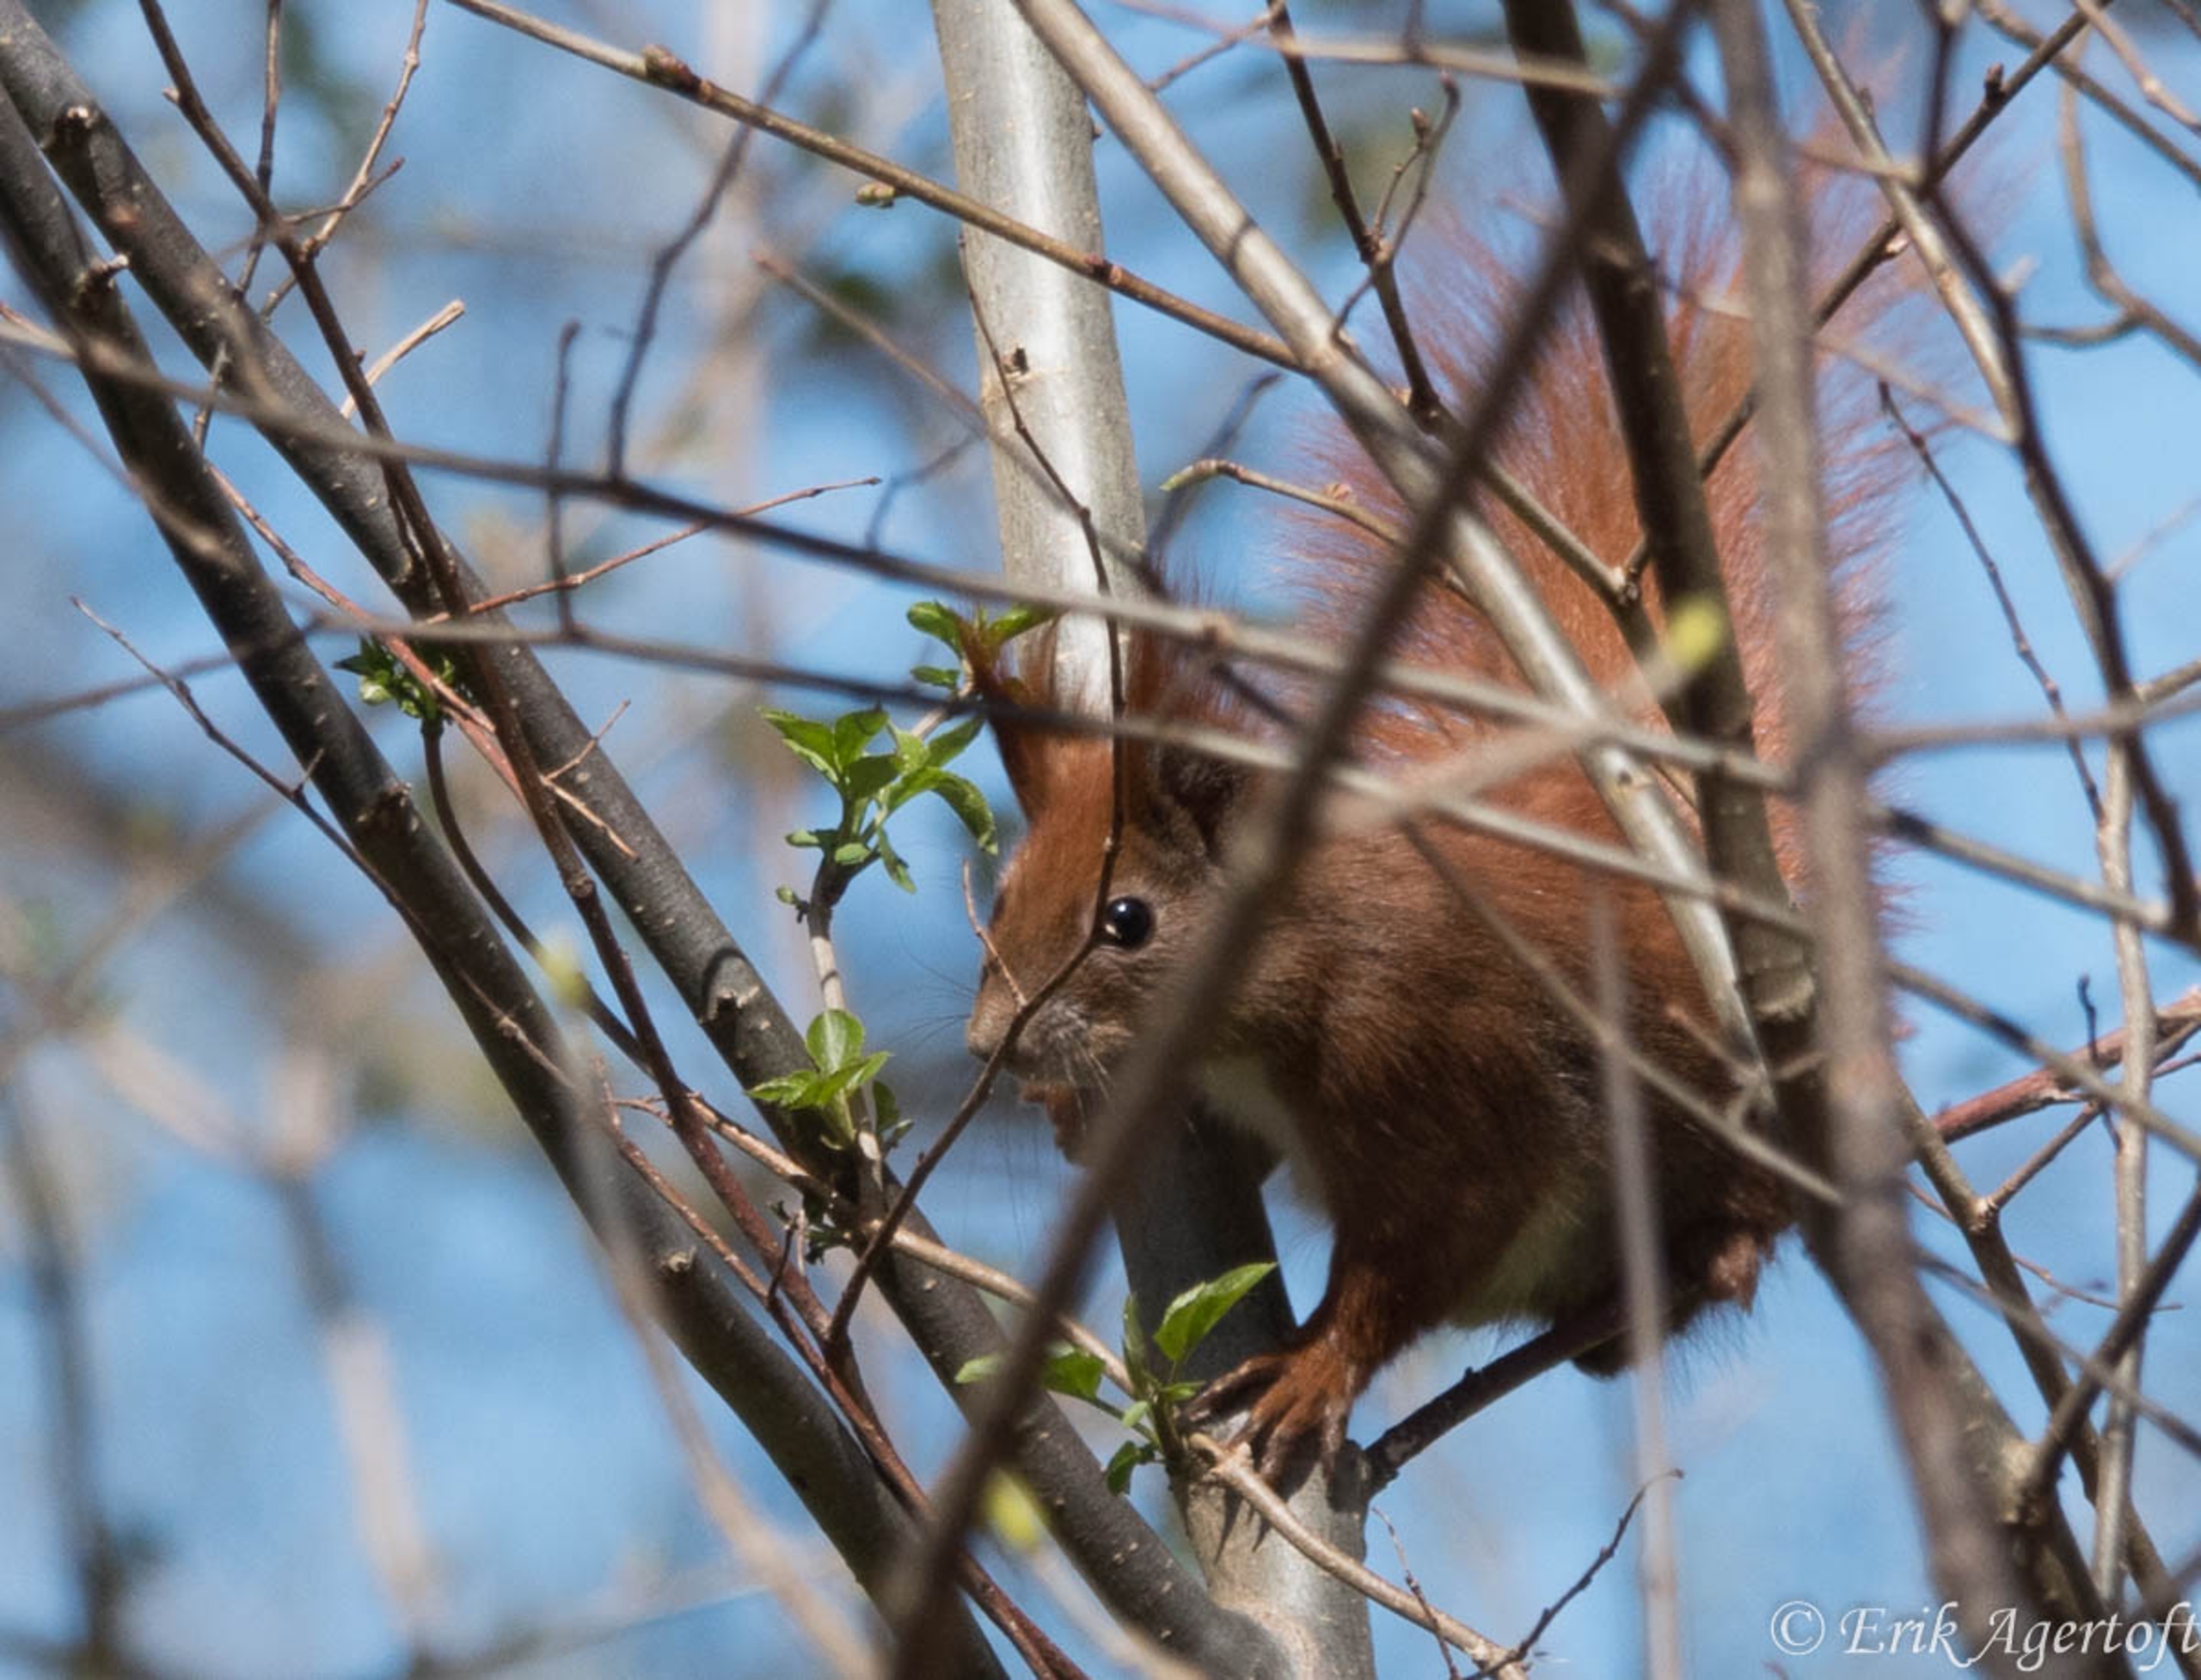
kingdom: Animalia
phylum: Chordata
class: Mammalia
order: Rodentia
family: Sciuridae
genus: Sciurus
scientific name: Sciurus vulgaris
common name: Egern
